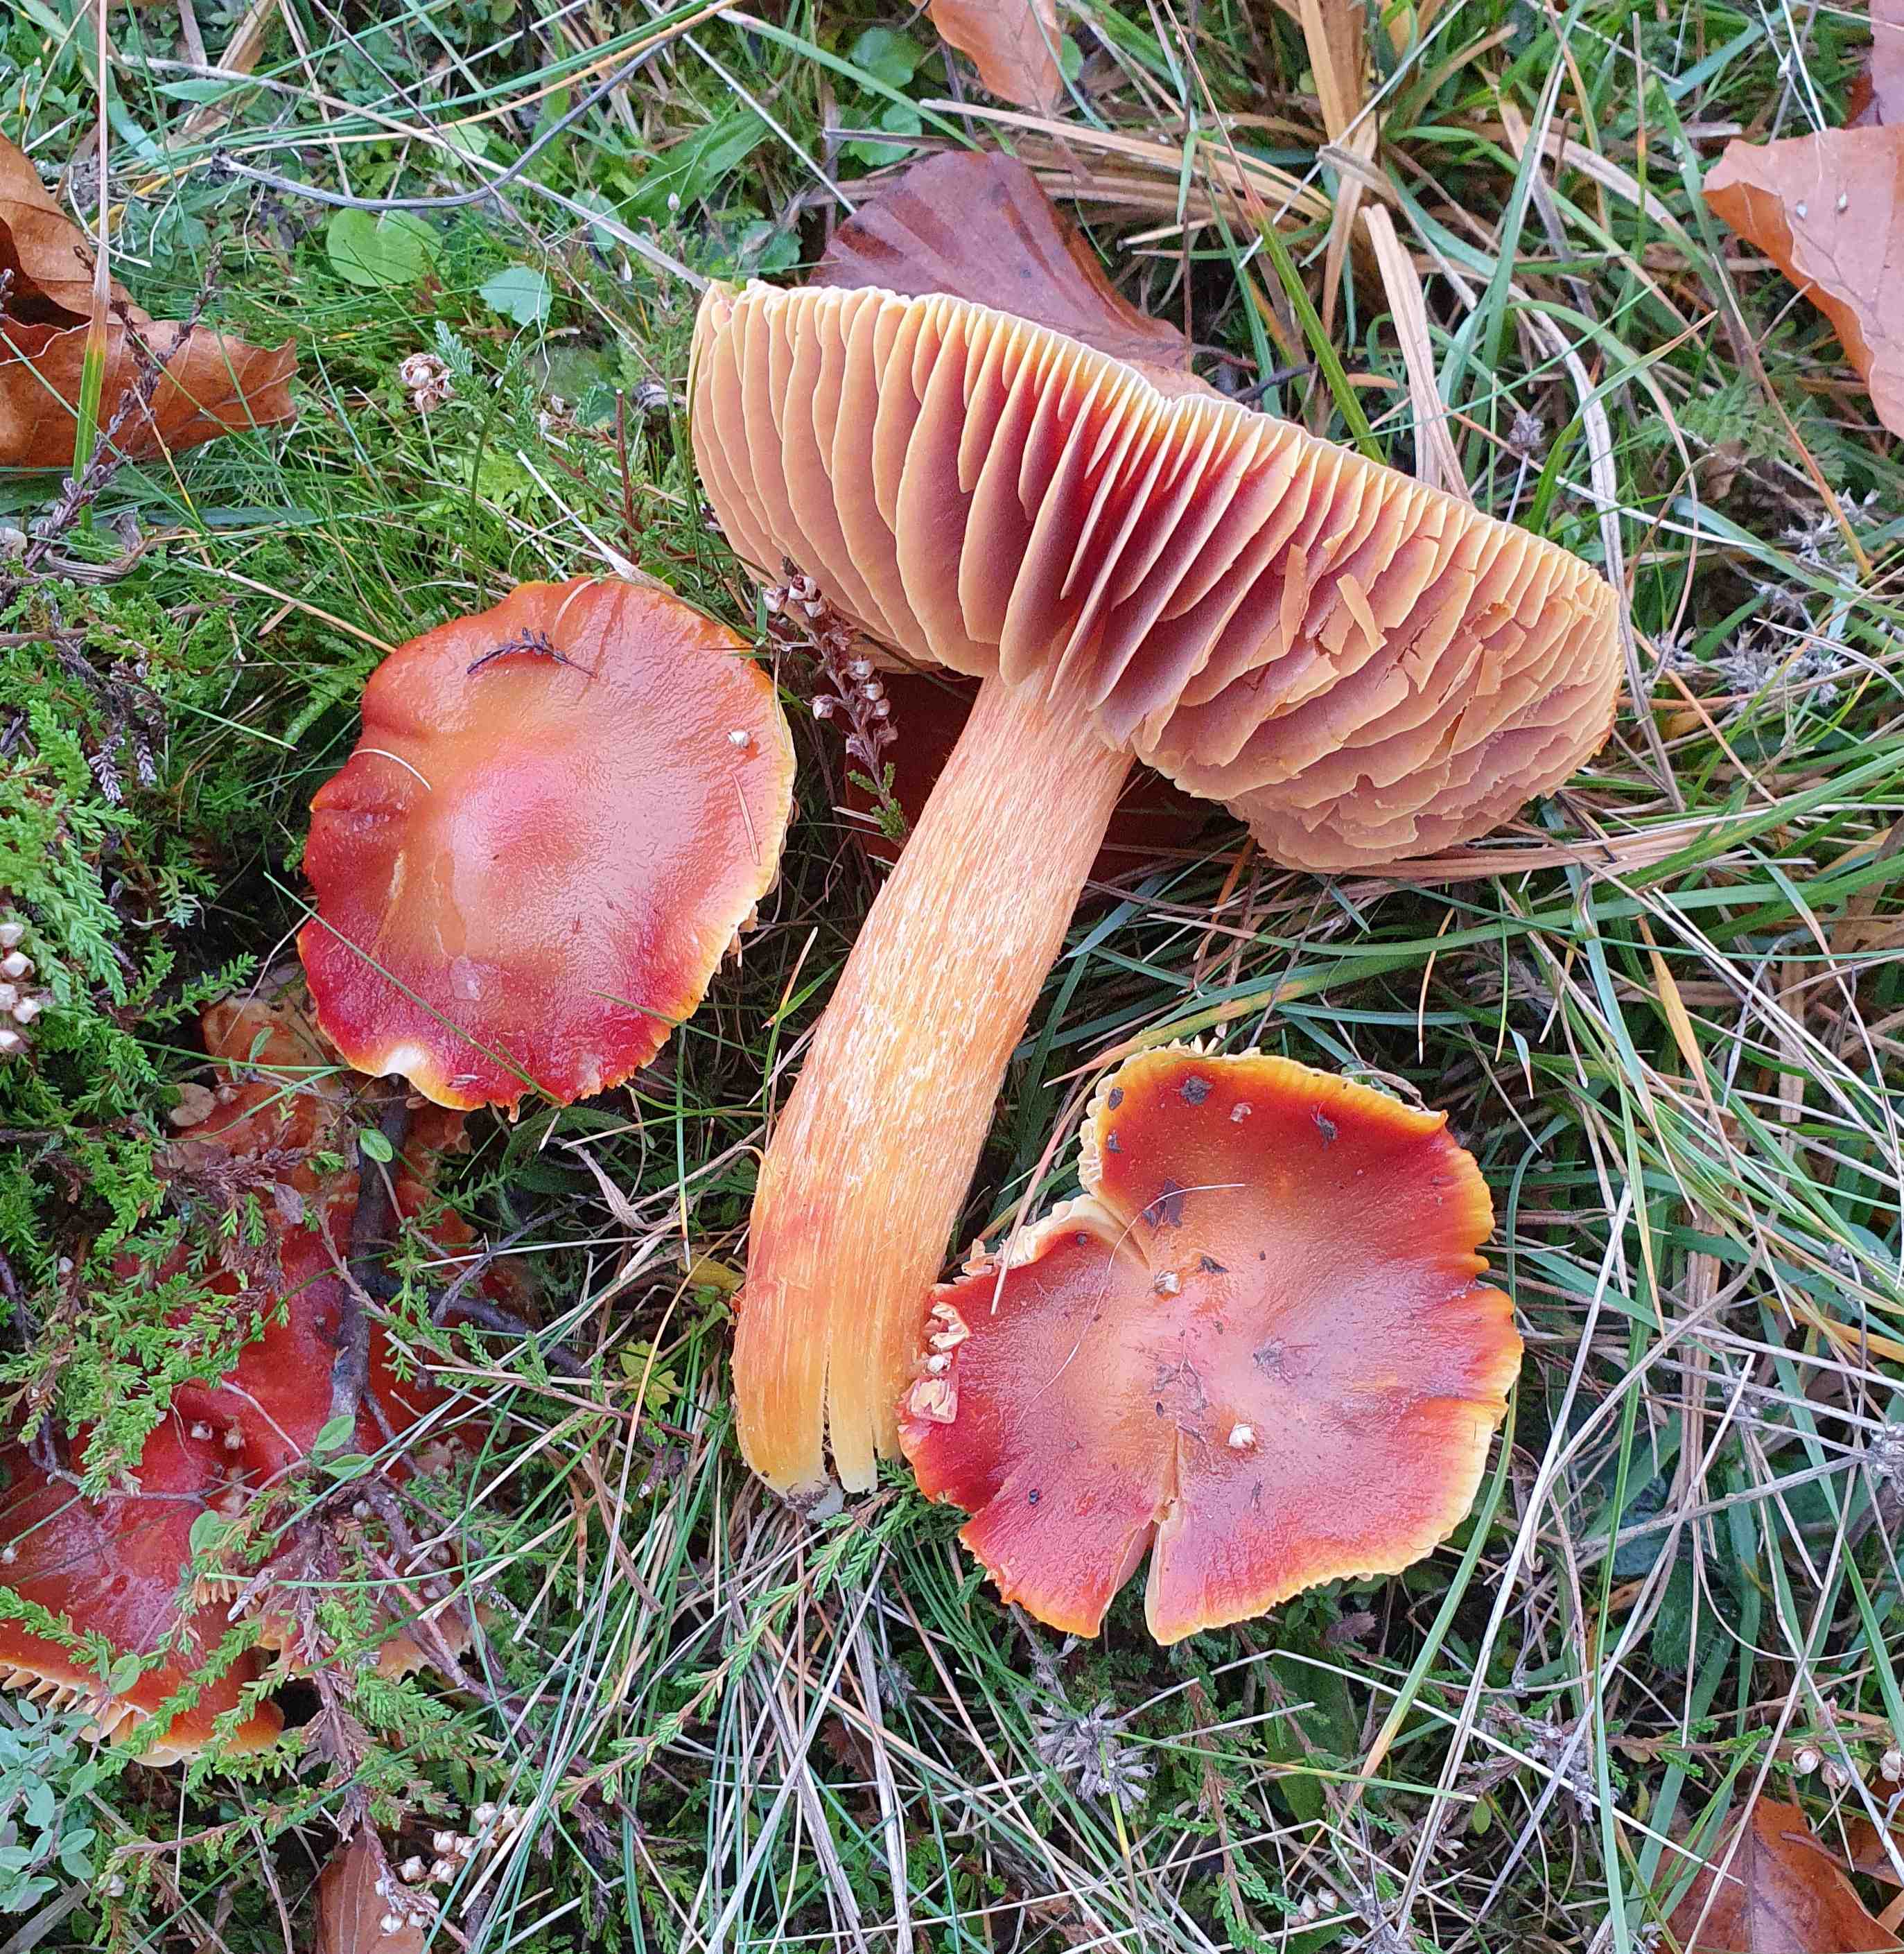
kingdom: Fungi
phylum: Basidiomycota
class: Agaricomycetes
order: Agaricales
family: Hygrophoraceae
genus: Hygrocybe
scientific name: Hygrocybe punicea
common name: skarlagen-vokshat
